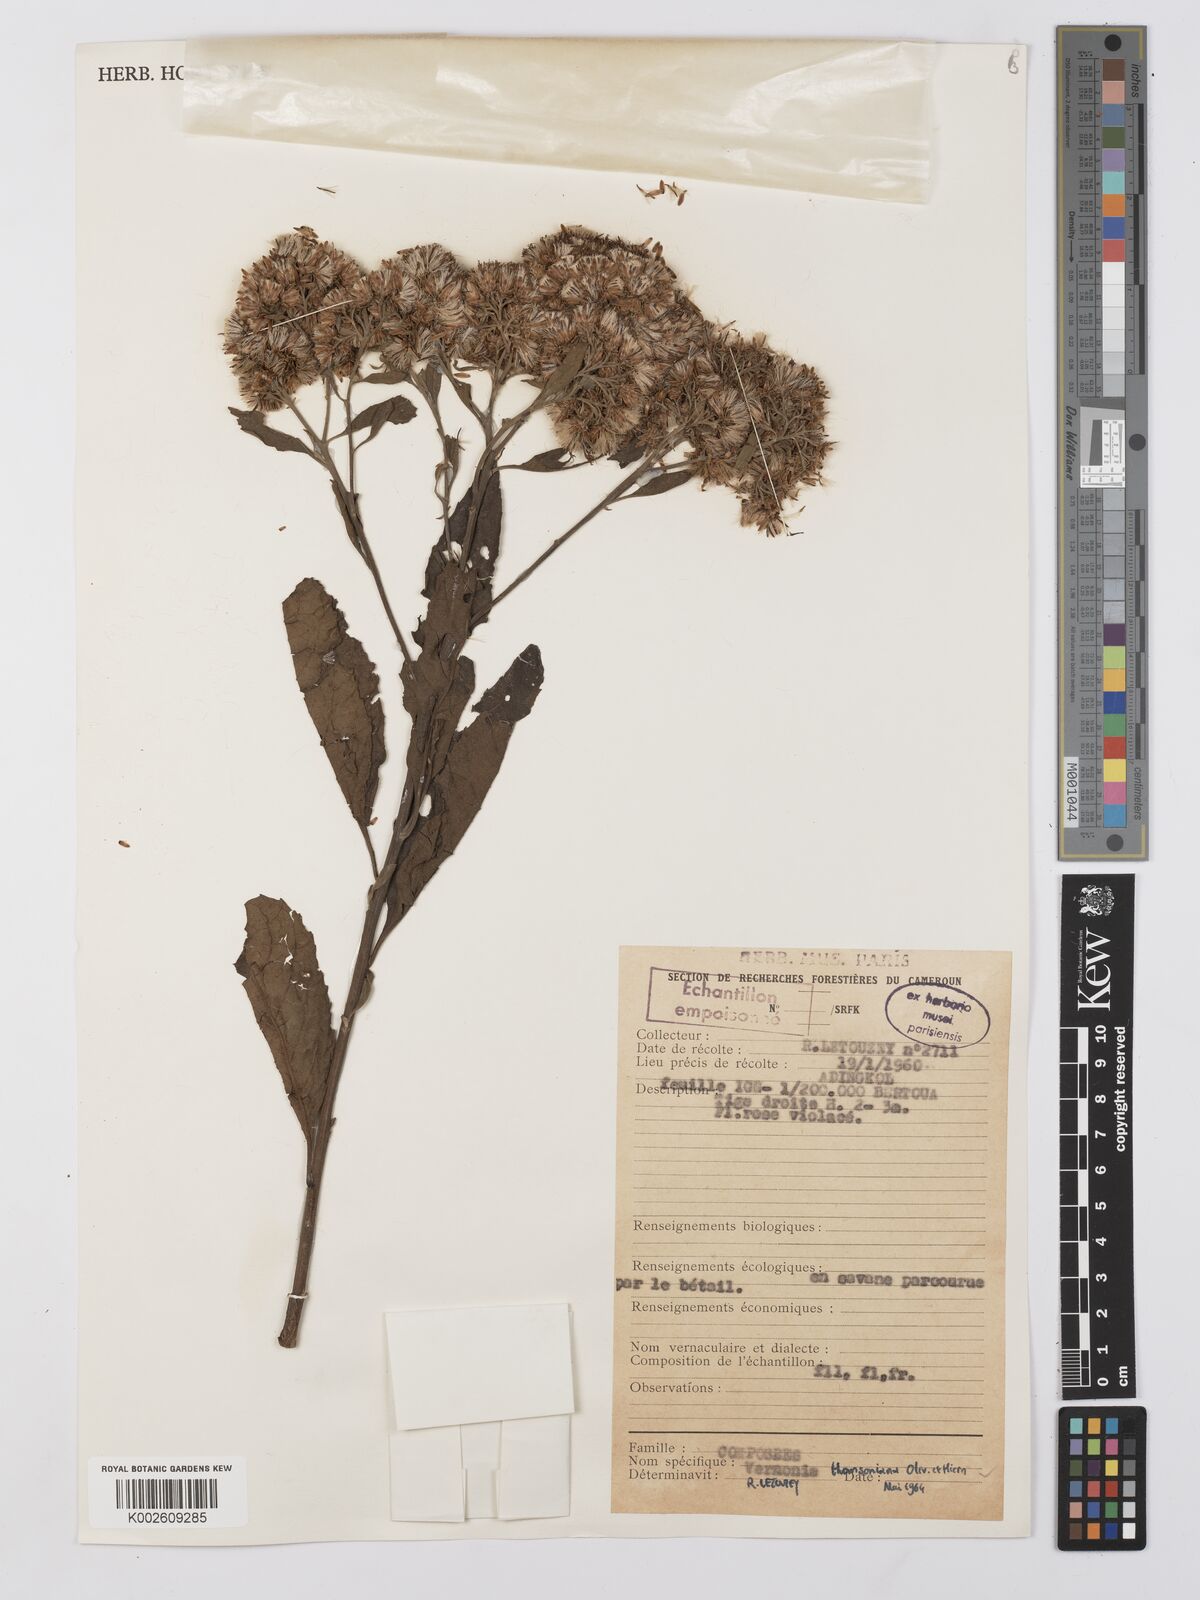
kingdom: Plantae
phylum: Tracheophyta
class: Magnoliopsida
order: Asterales
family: Asteraceae
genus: Gymnanthemum
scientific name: Gymnanthemum thomsonianum
